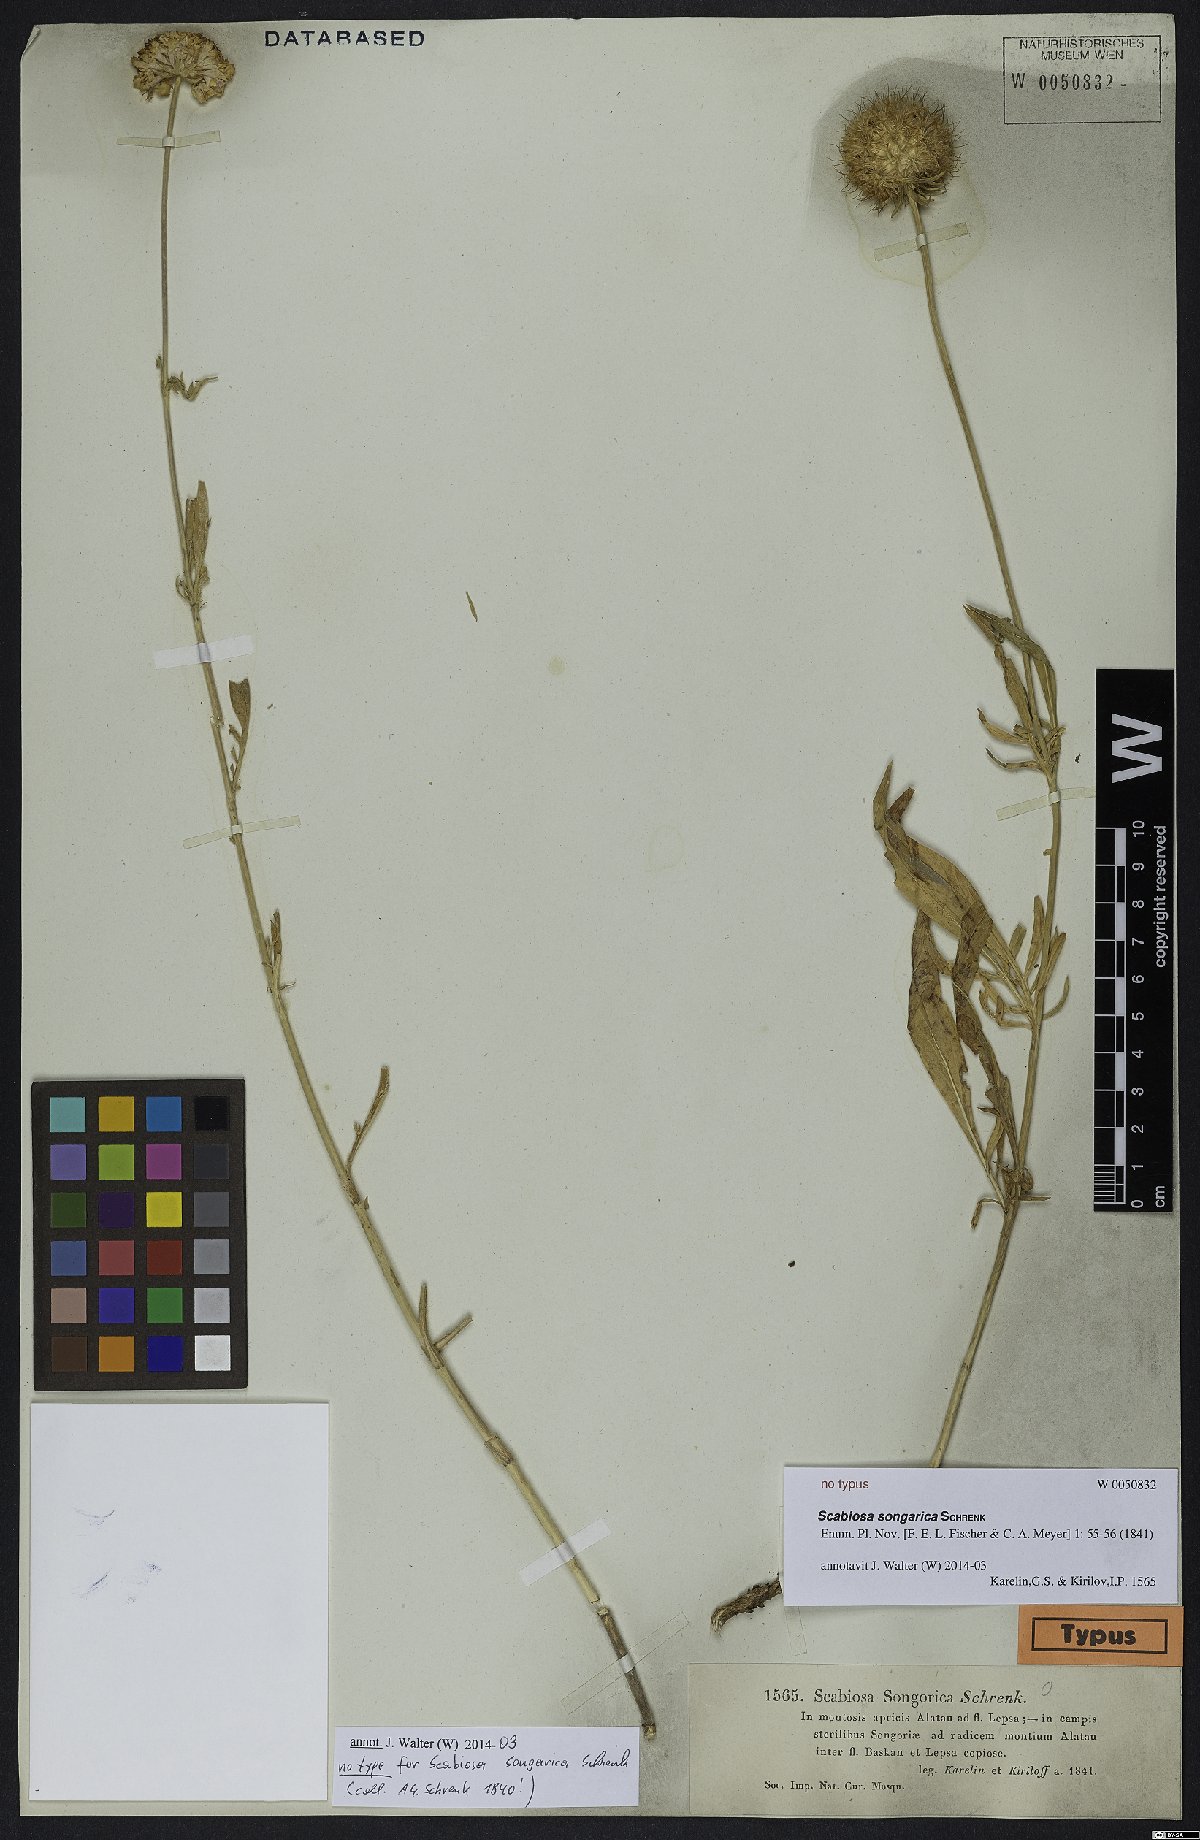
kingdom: Plantae
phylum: Tracheophyta
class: Magnoliopsida
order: Dipsacales
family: Caprifoliaceae
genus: Lomelosia
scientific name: Lomelosia songarica
